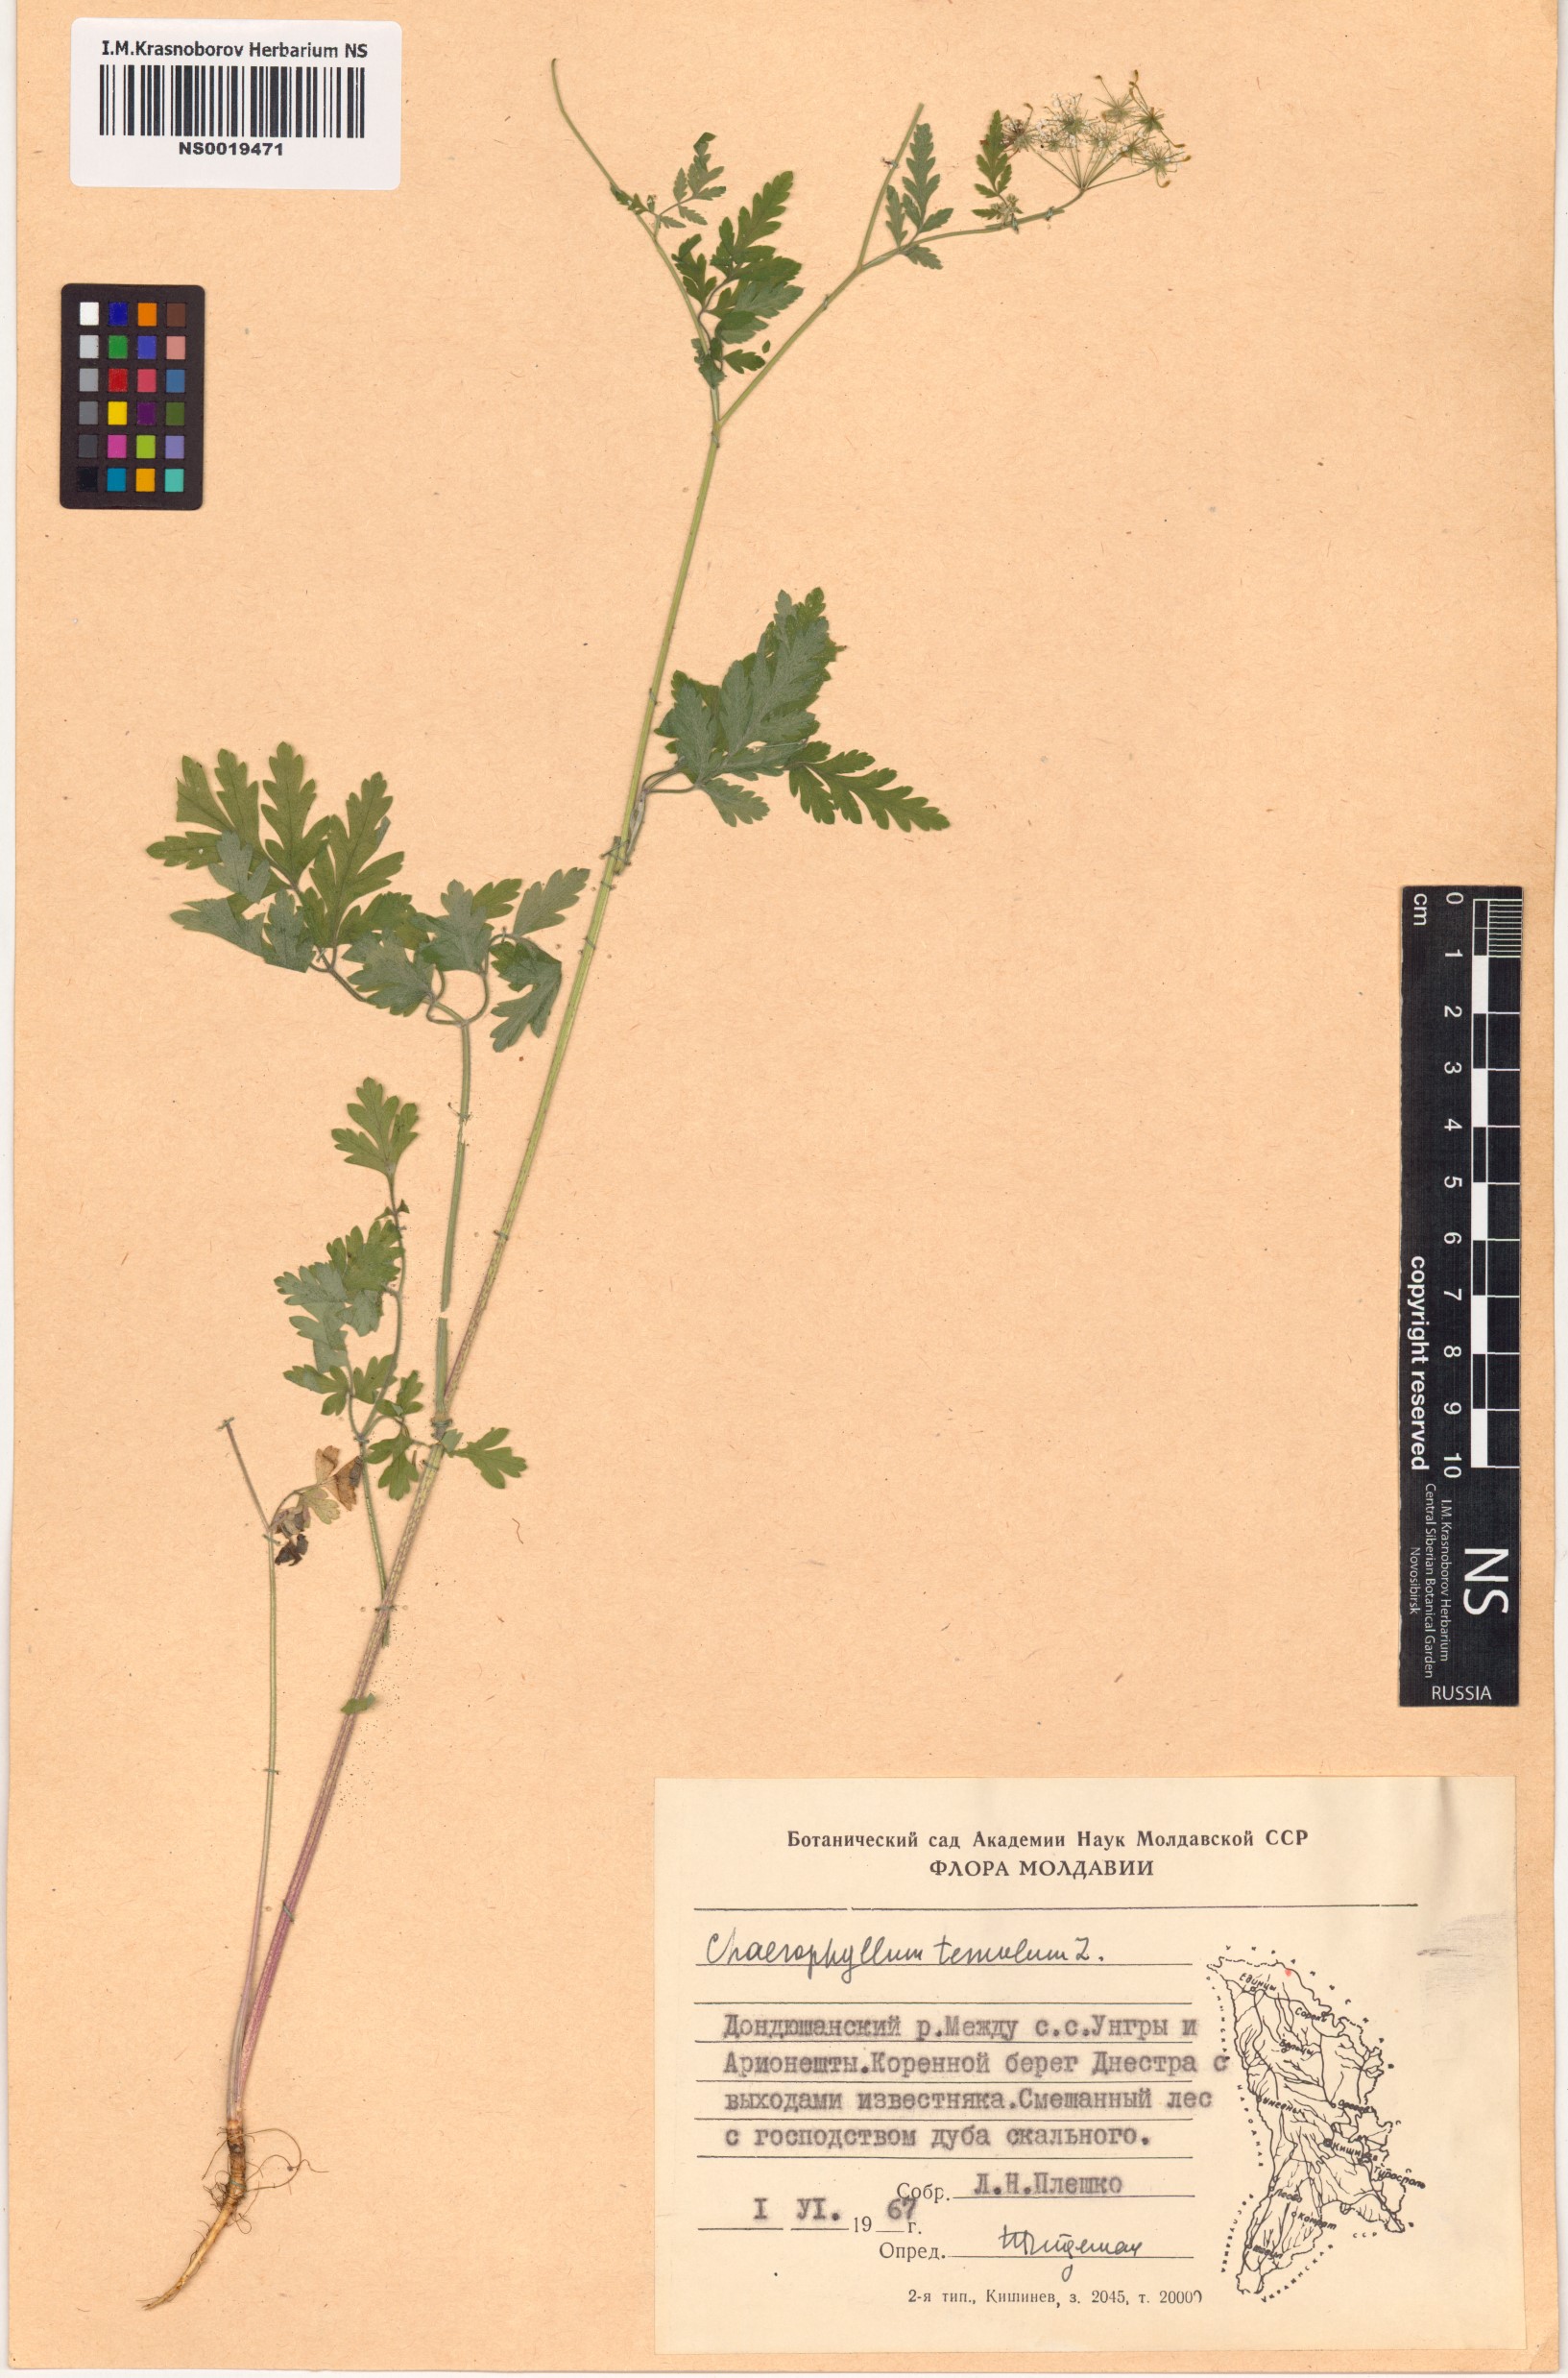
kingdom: Plantae
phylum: Tracheophyta
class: Magnoliopsida
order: Apiales
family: Apiaceae
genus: Chaerophyllum
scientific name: Chaerophyllum temulum
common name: Rough chervil
